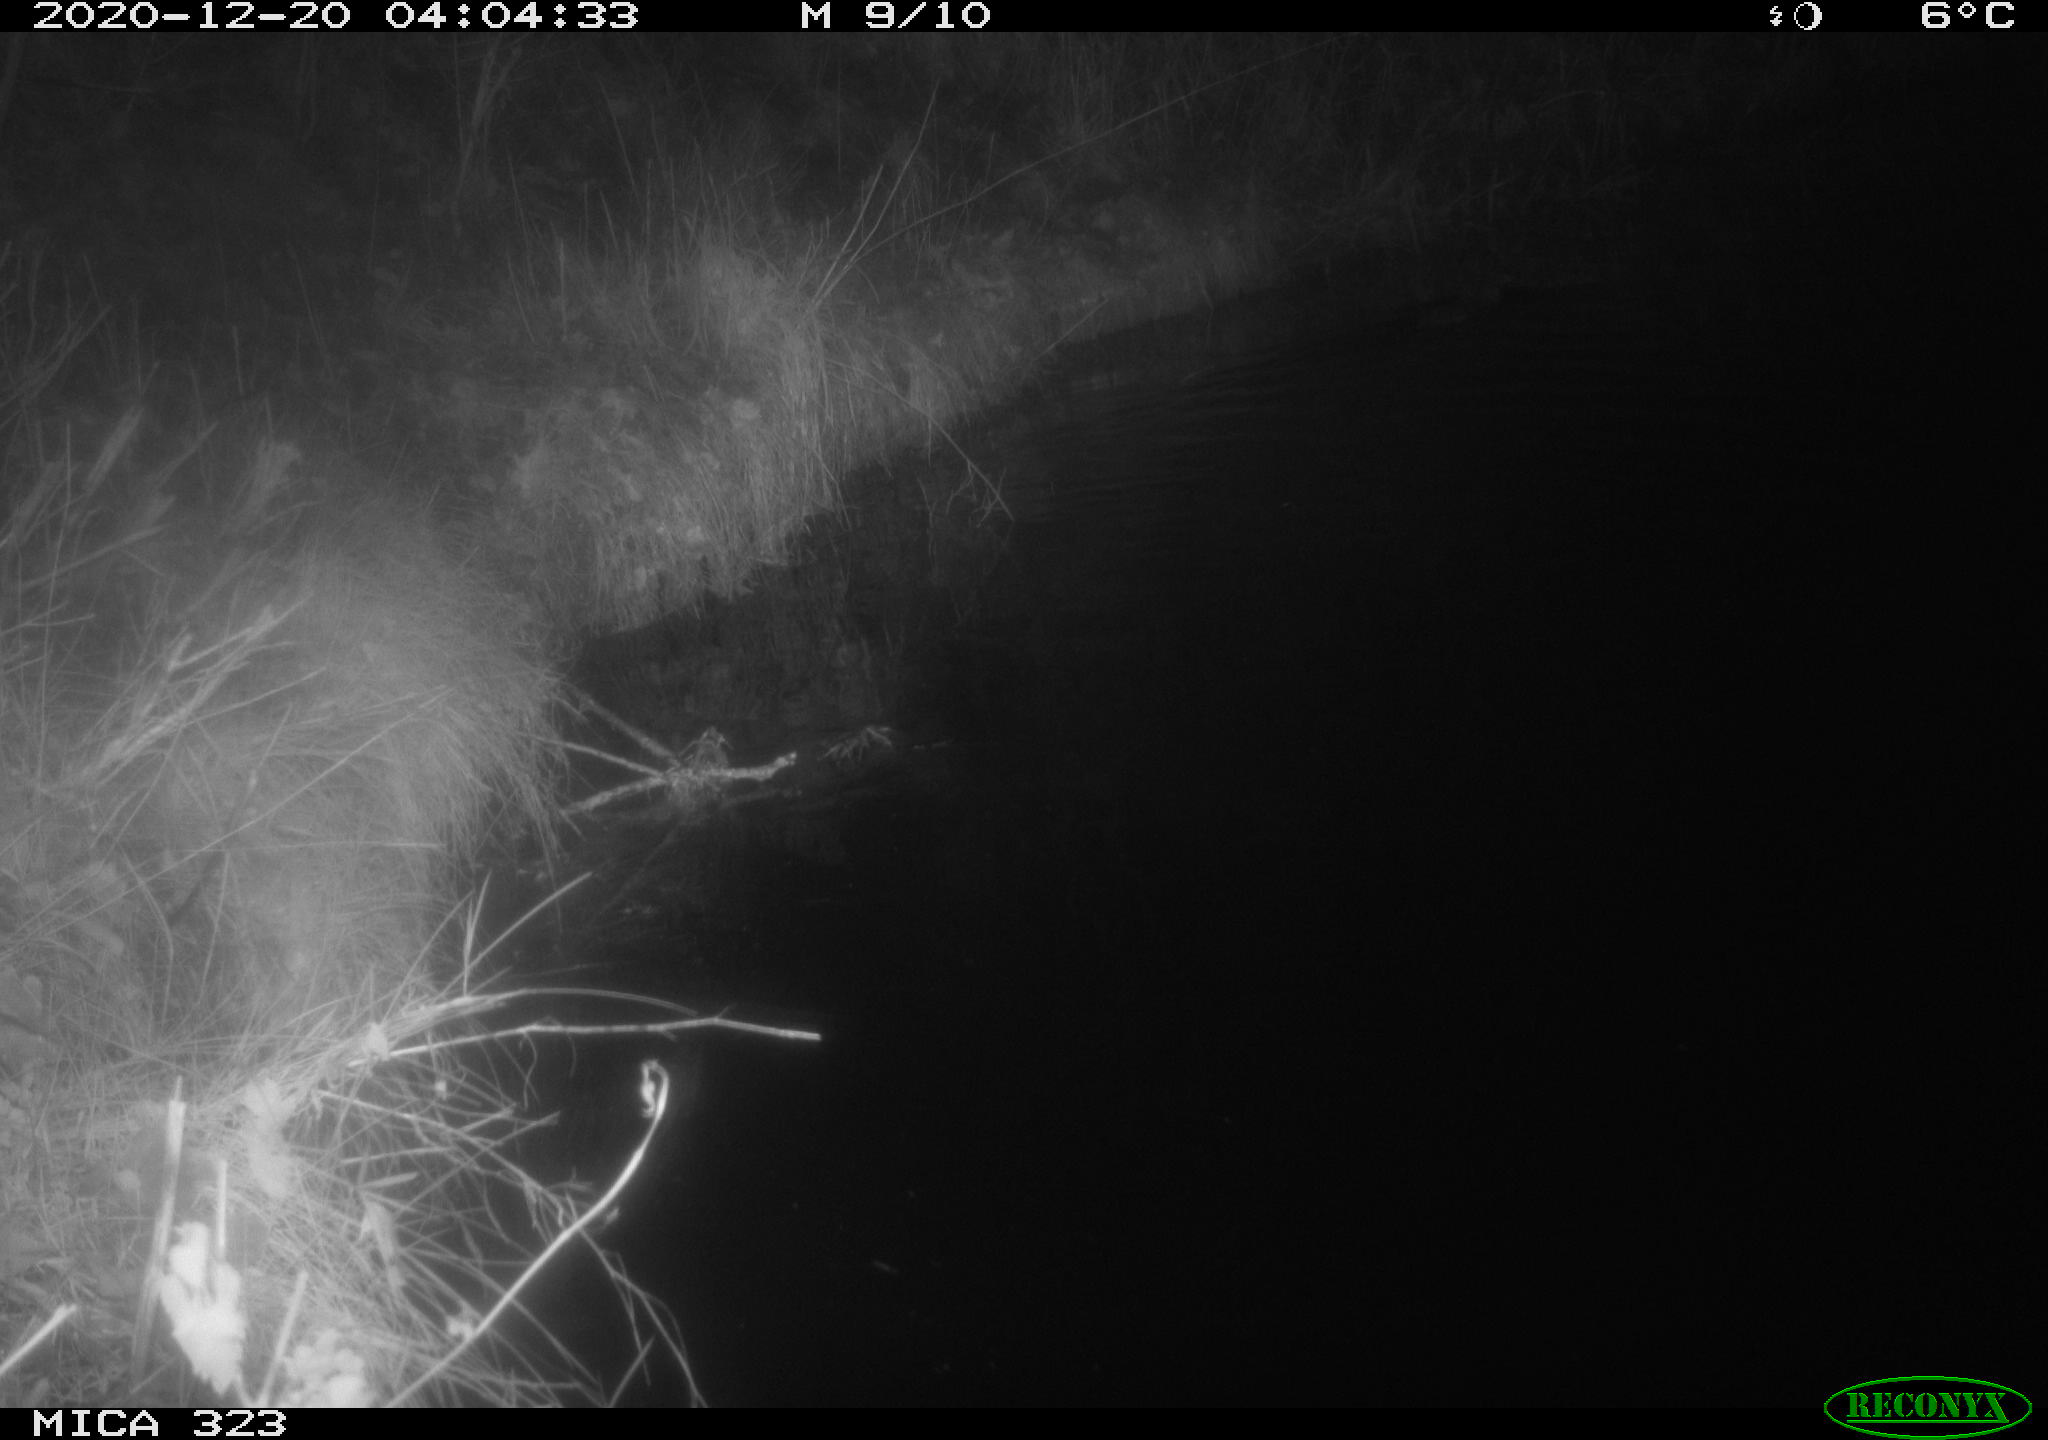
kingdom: Animalia
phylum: Chordata
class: Mammalia
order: Rodentia
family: Myocastoridae
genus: Myocastor
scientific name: Myocastor coypus
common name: Coypu
